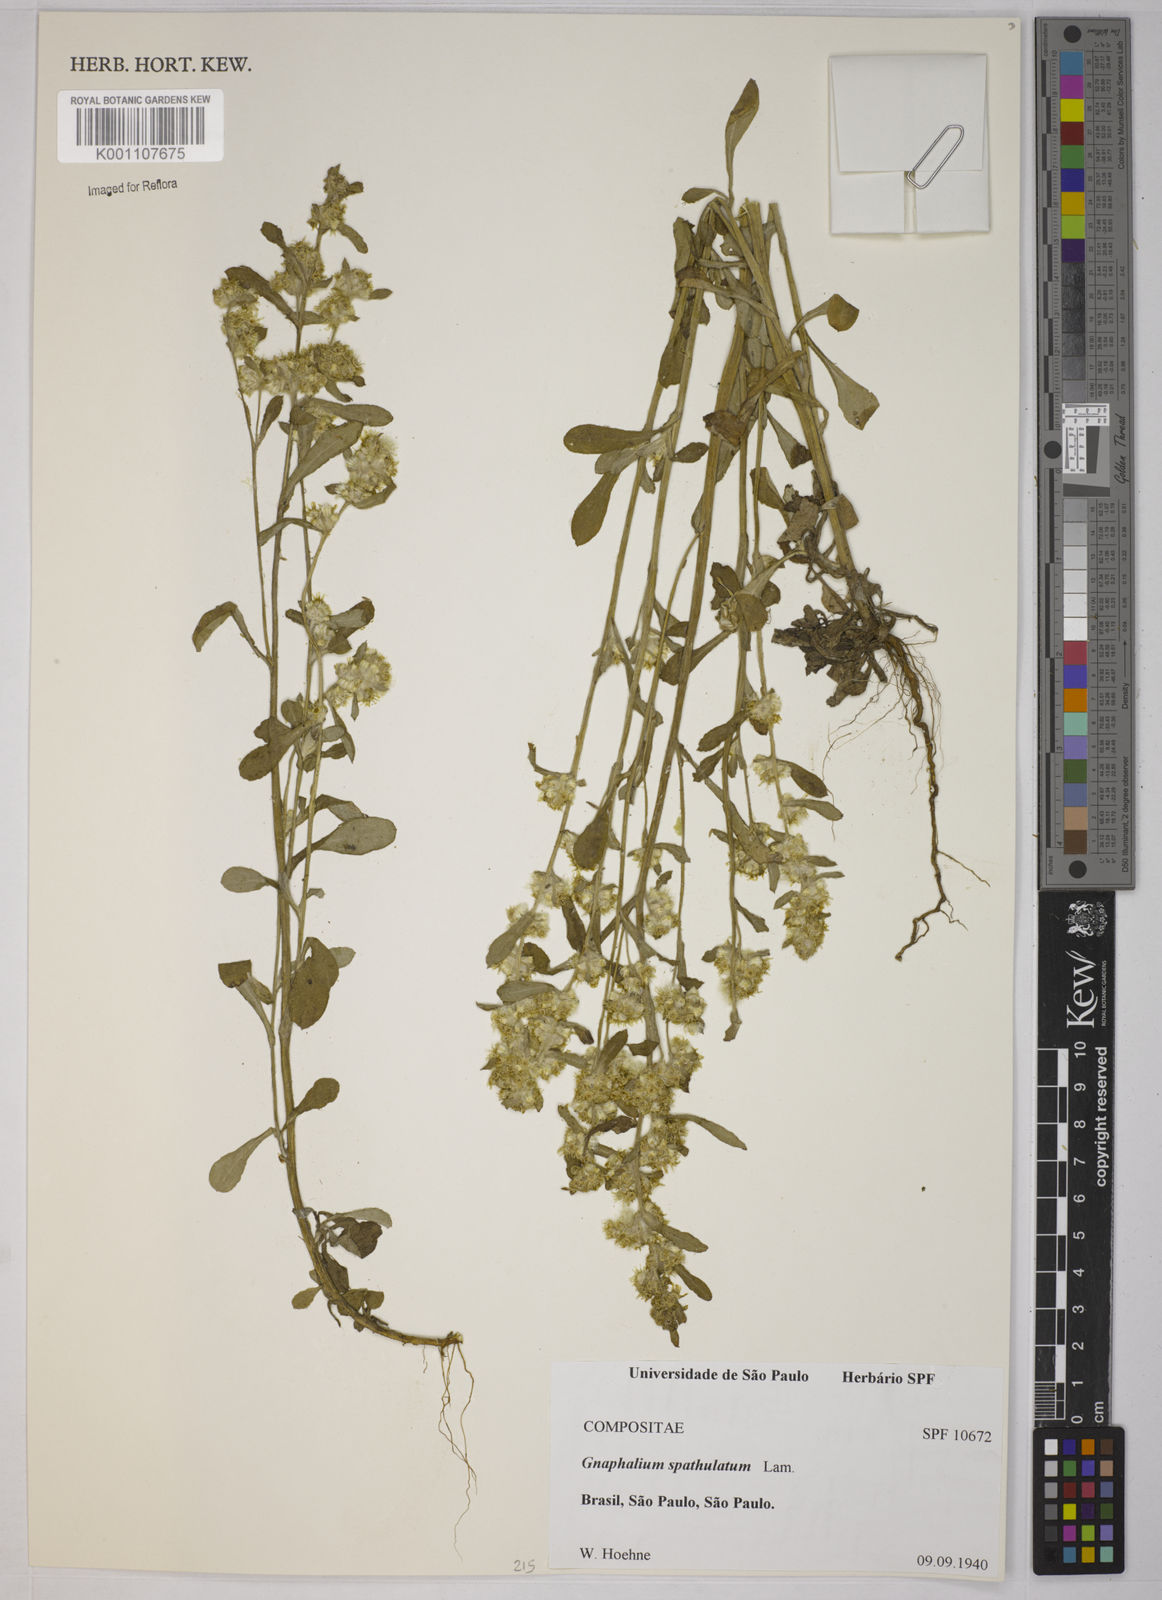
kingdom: Plantae
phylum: Tracheophyta
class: Magnoliopsida
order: Asterales
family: Asteraceae
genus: Gamochaeta
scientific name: Gamochaeta pensylvanica
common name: Pennsylvania everlasting
